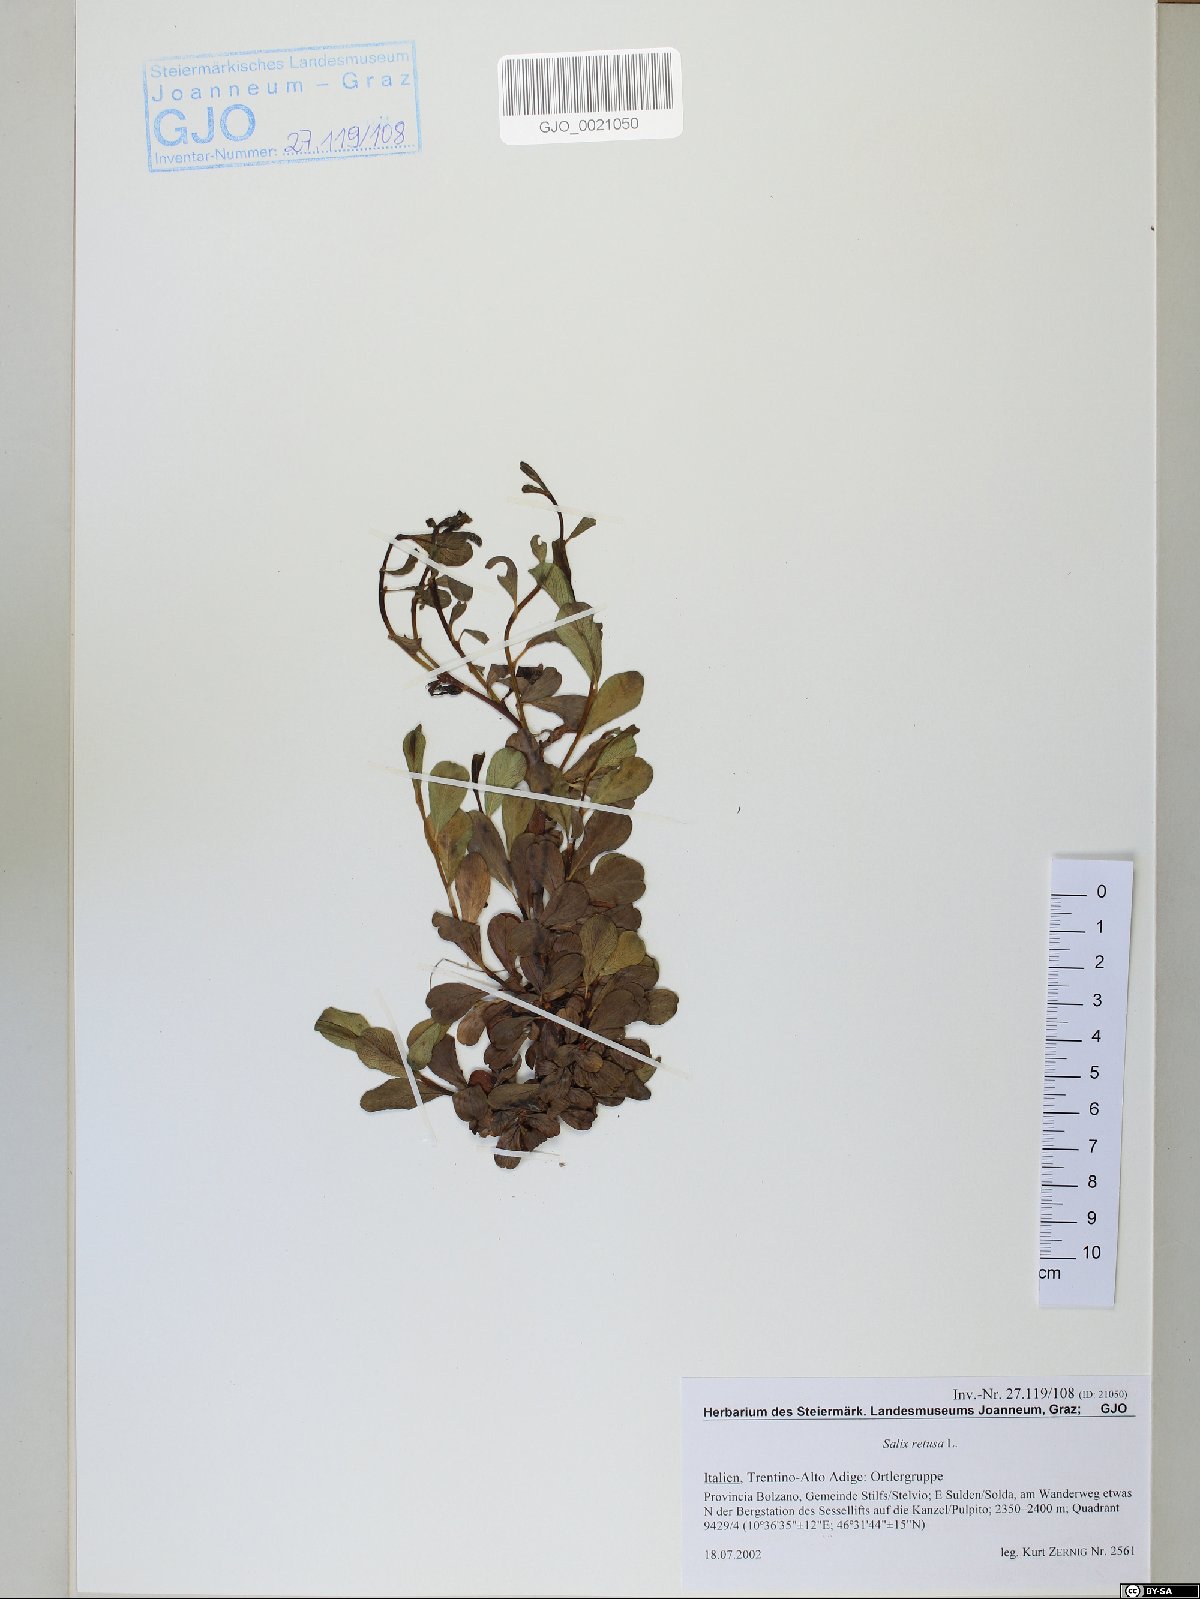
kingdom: Plantae
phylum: Tracheophyta
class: Magnoliopsida
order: Malpighiales
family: Salicaceae
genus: Salix
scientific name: Salix retusa
